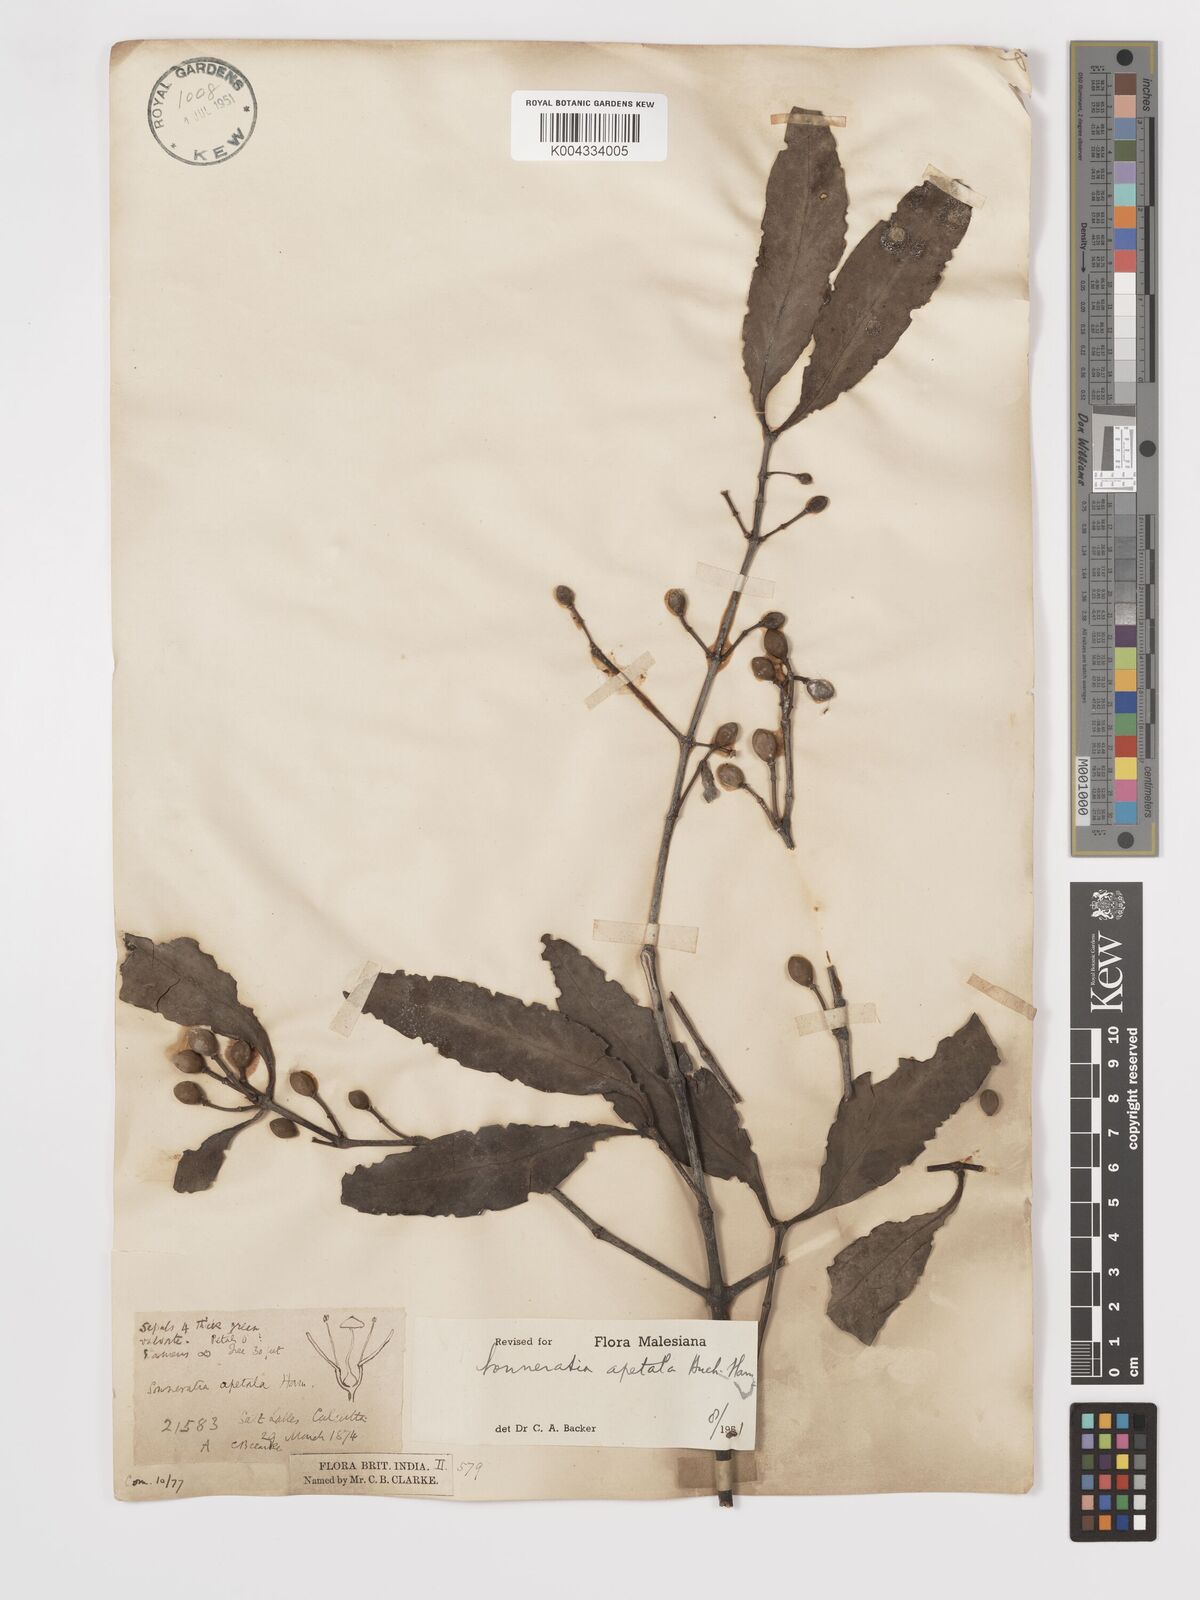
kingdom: Plantae
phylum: Tracheophyta
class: Magnoliopsida
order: Myrtales
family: Lythraceae
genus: Sonneratia
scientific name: Sonneratia apetala
